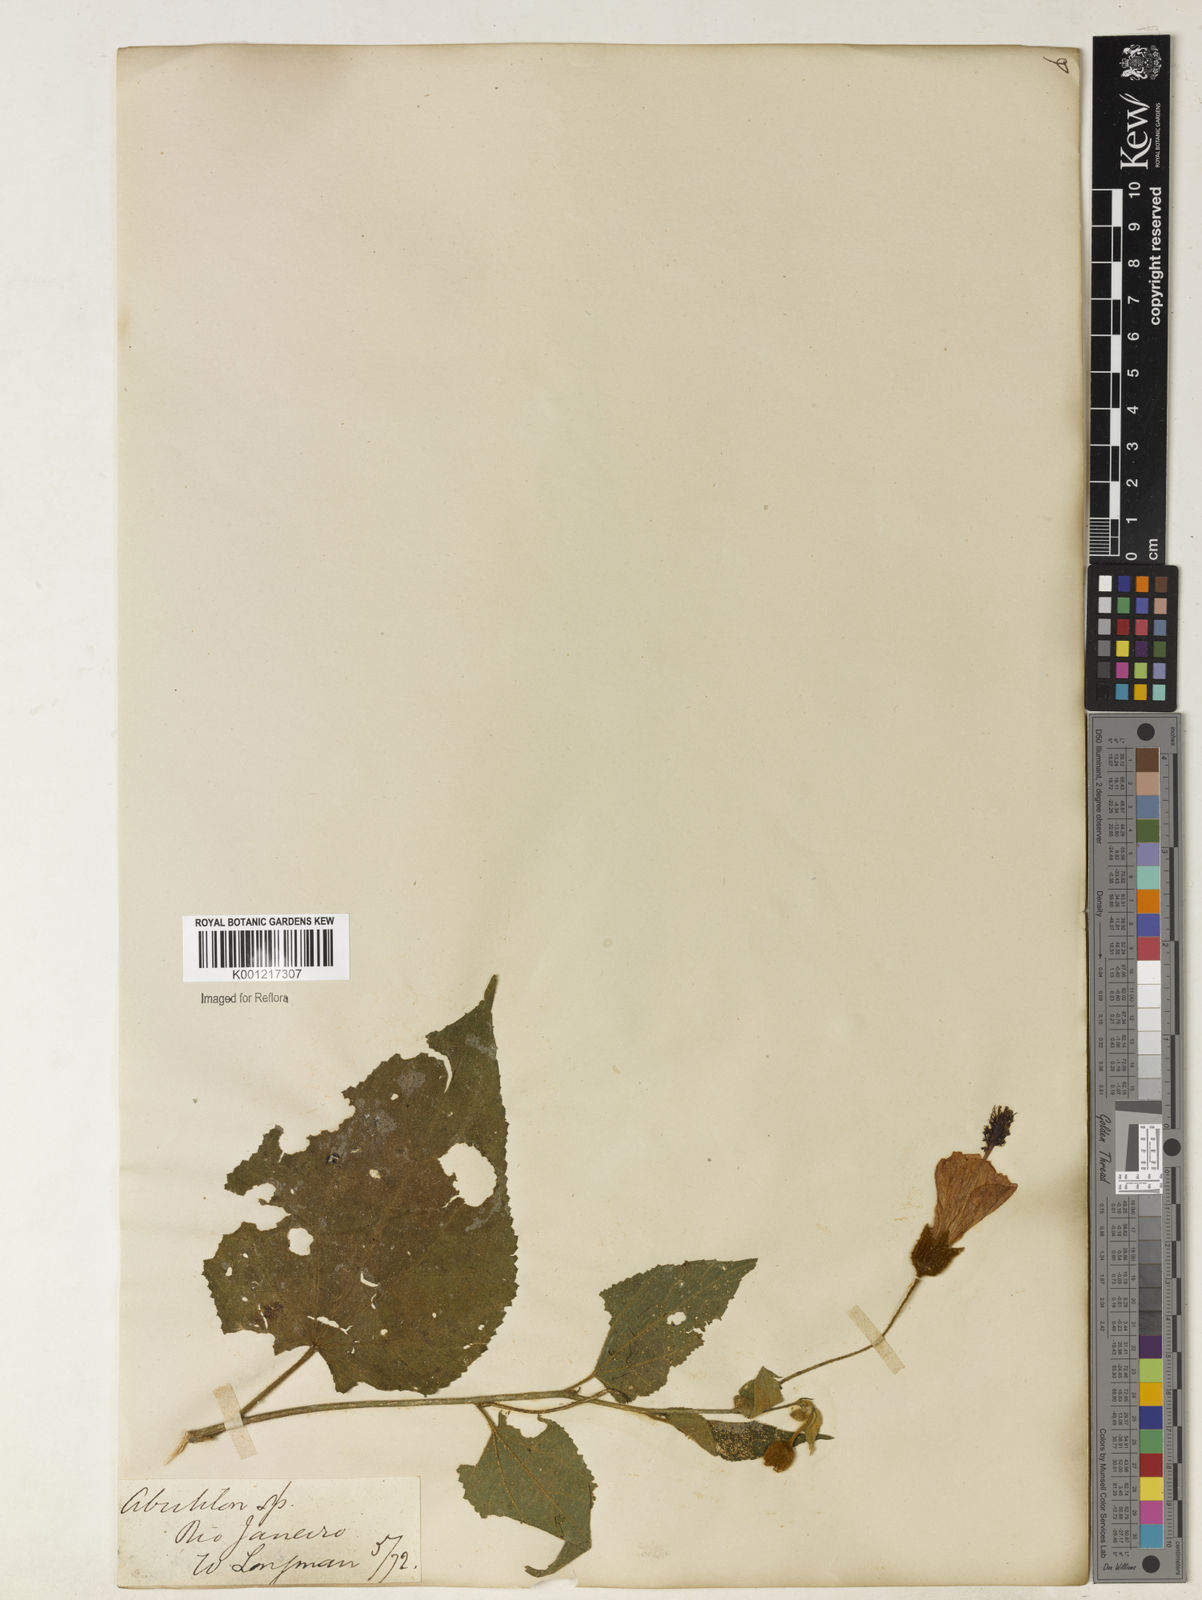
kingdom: Plantae
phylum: Tracheophyta
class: Magnoliopsida
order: Malvales
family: Malvaceae
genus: Callianthe
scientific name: Callianthe glaziovii
